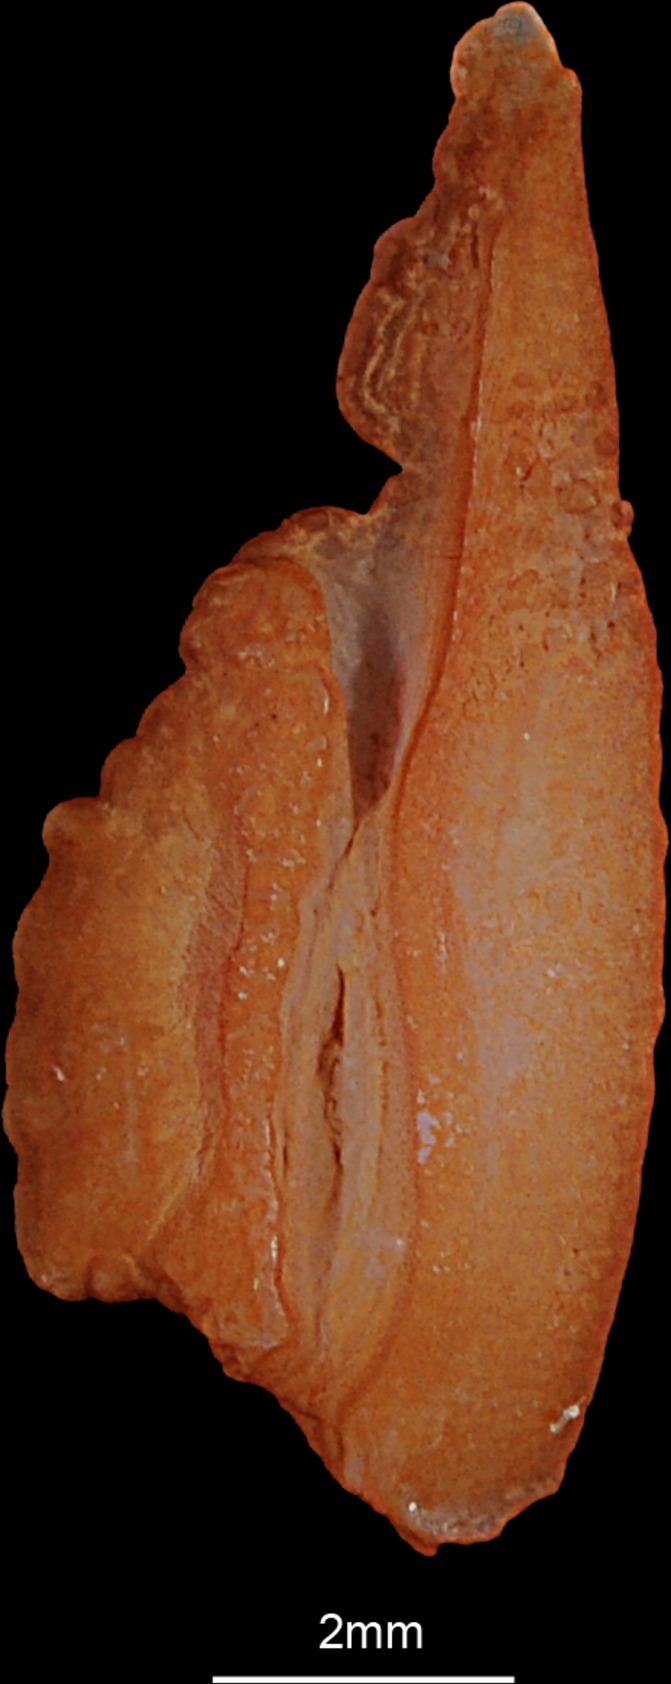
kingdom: Animalia
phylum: Chordata
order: Salmoniformes
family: Salmonidae
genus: Hucho
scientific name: Hucho hucho
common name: Huchen (danube salmon)
